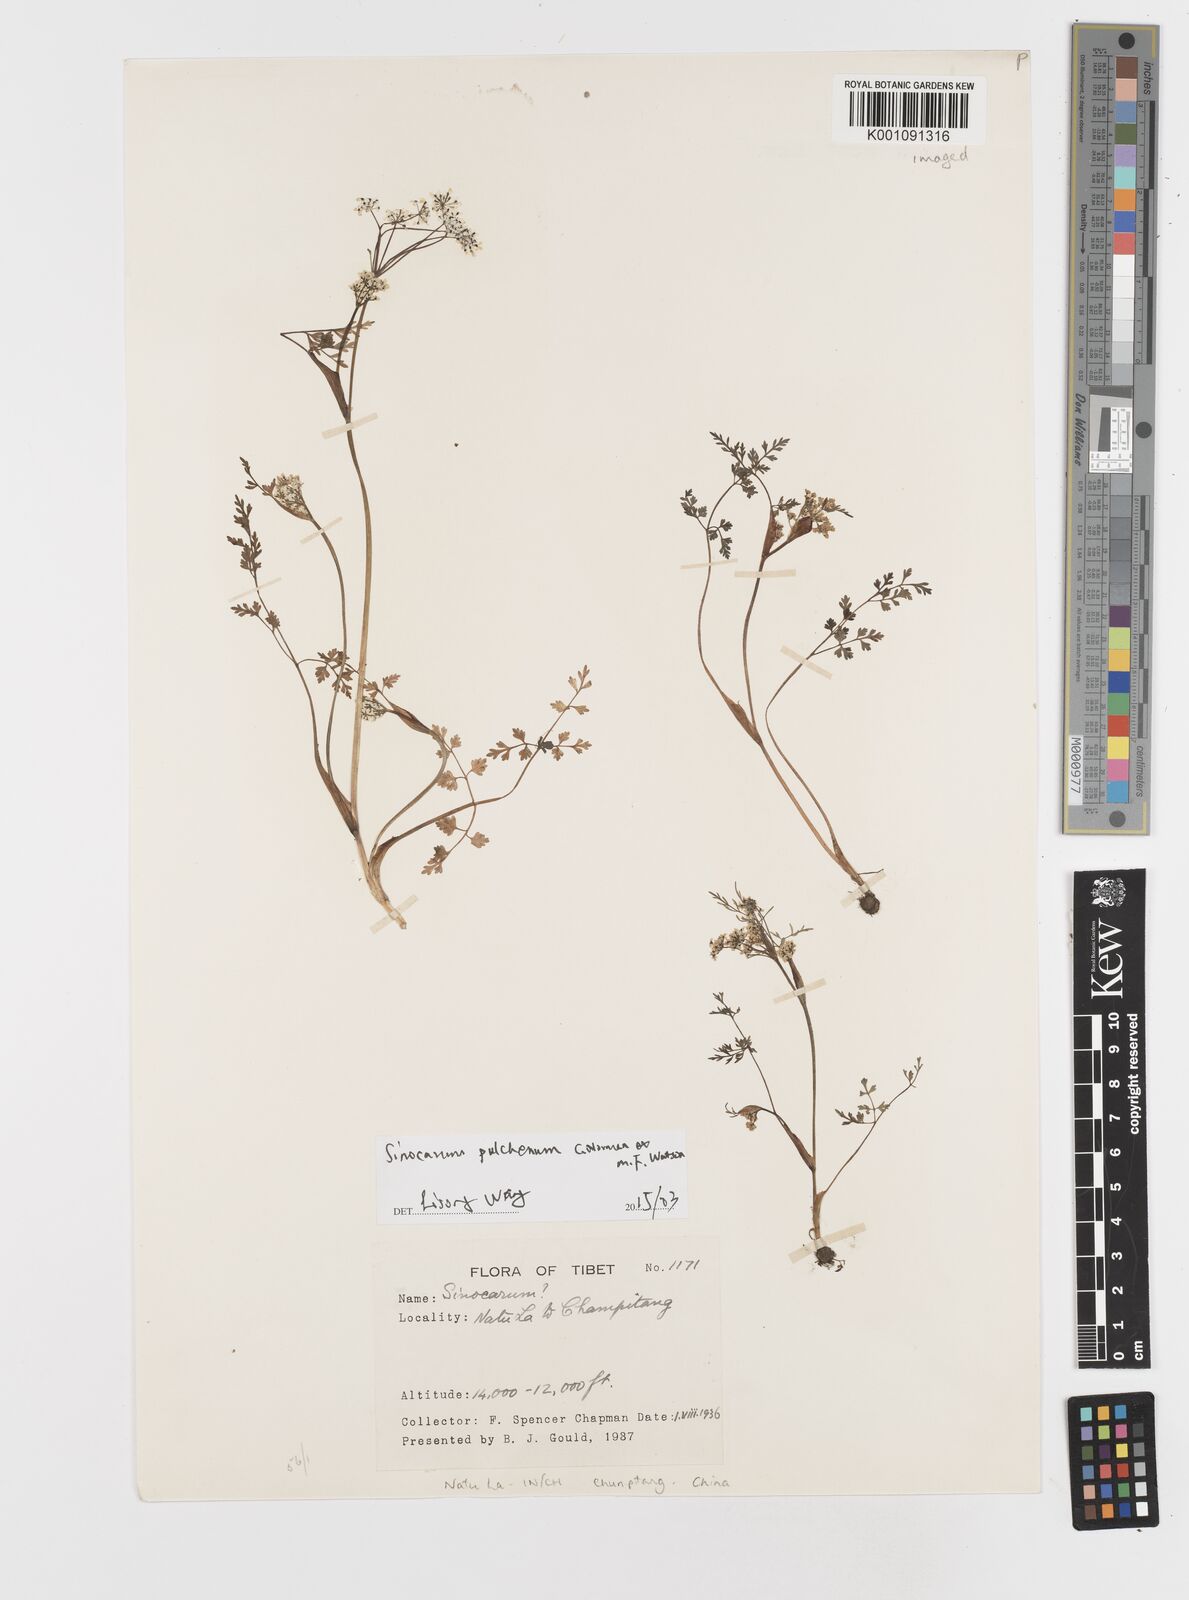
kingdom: Plantae
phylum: Tracheophyta
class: Magnoliopsida
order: Apiales
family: Apiaceae
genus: Sinocarum
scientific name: Sinocarum pulchellum
